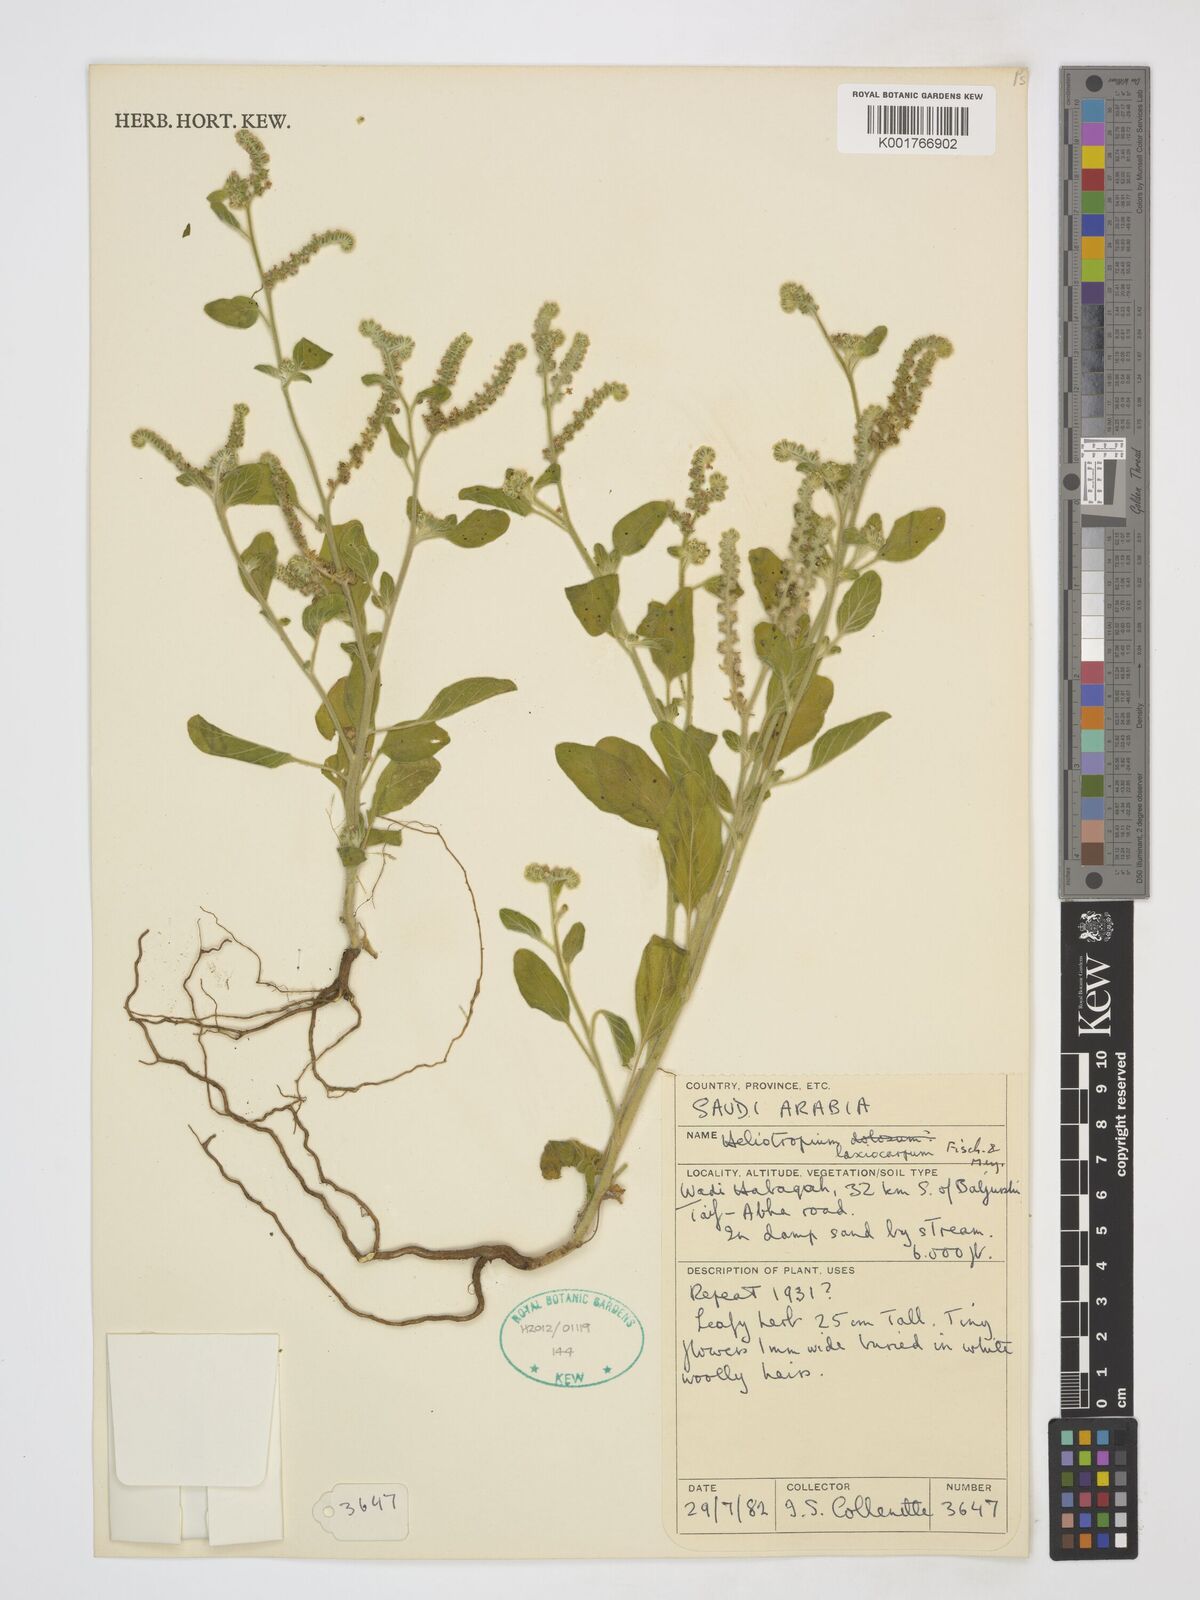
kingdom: Plantae
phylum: Tracheophyta
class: Magnoliopsida
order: Boraginales
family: Heliotropiaceae
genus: Heliotropium
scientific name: Heliotropium lasiocarpum
